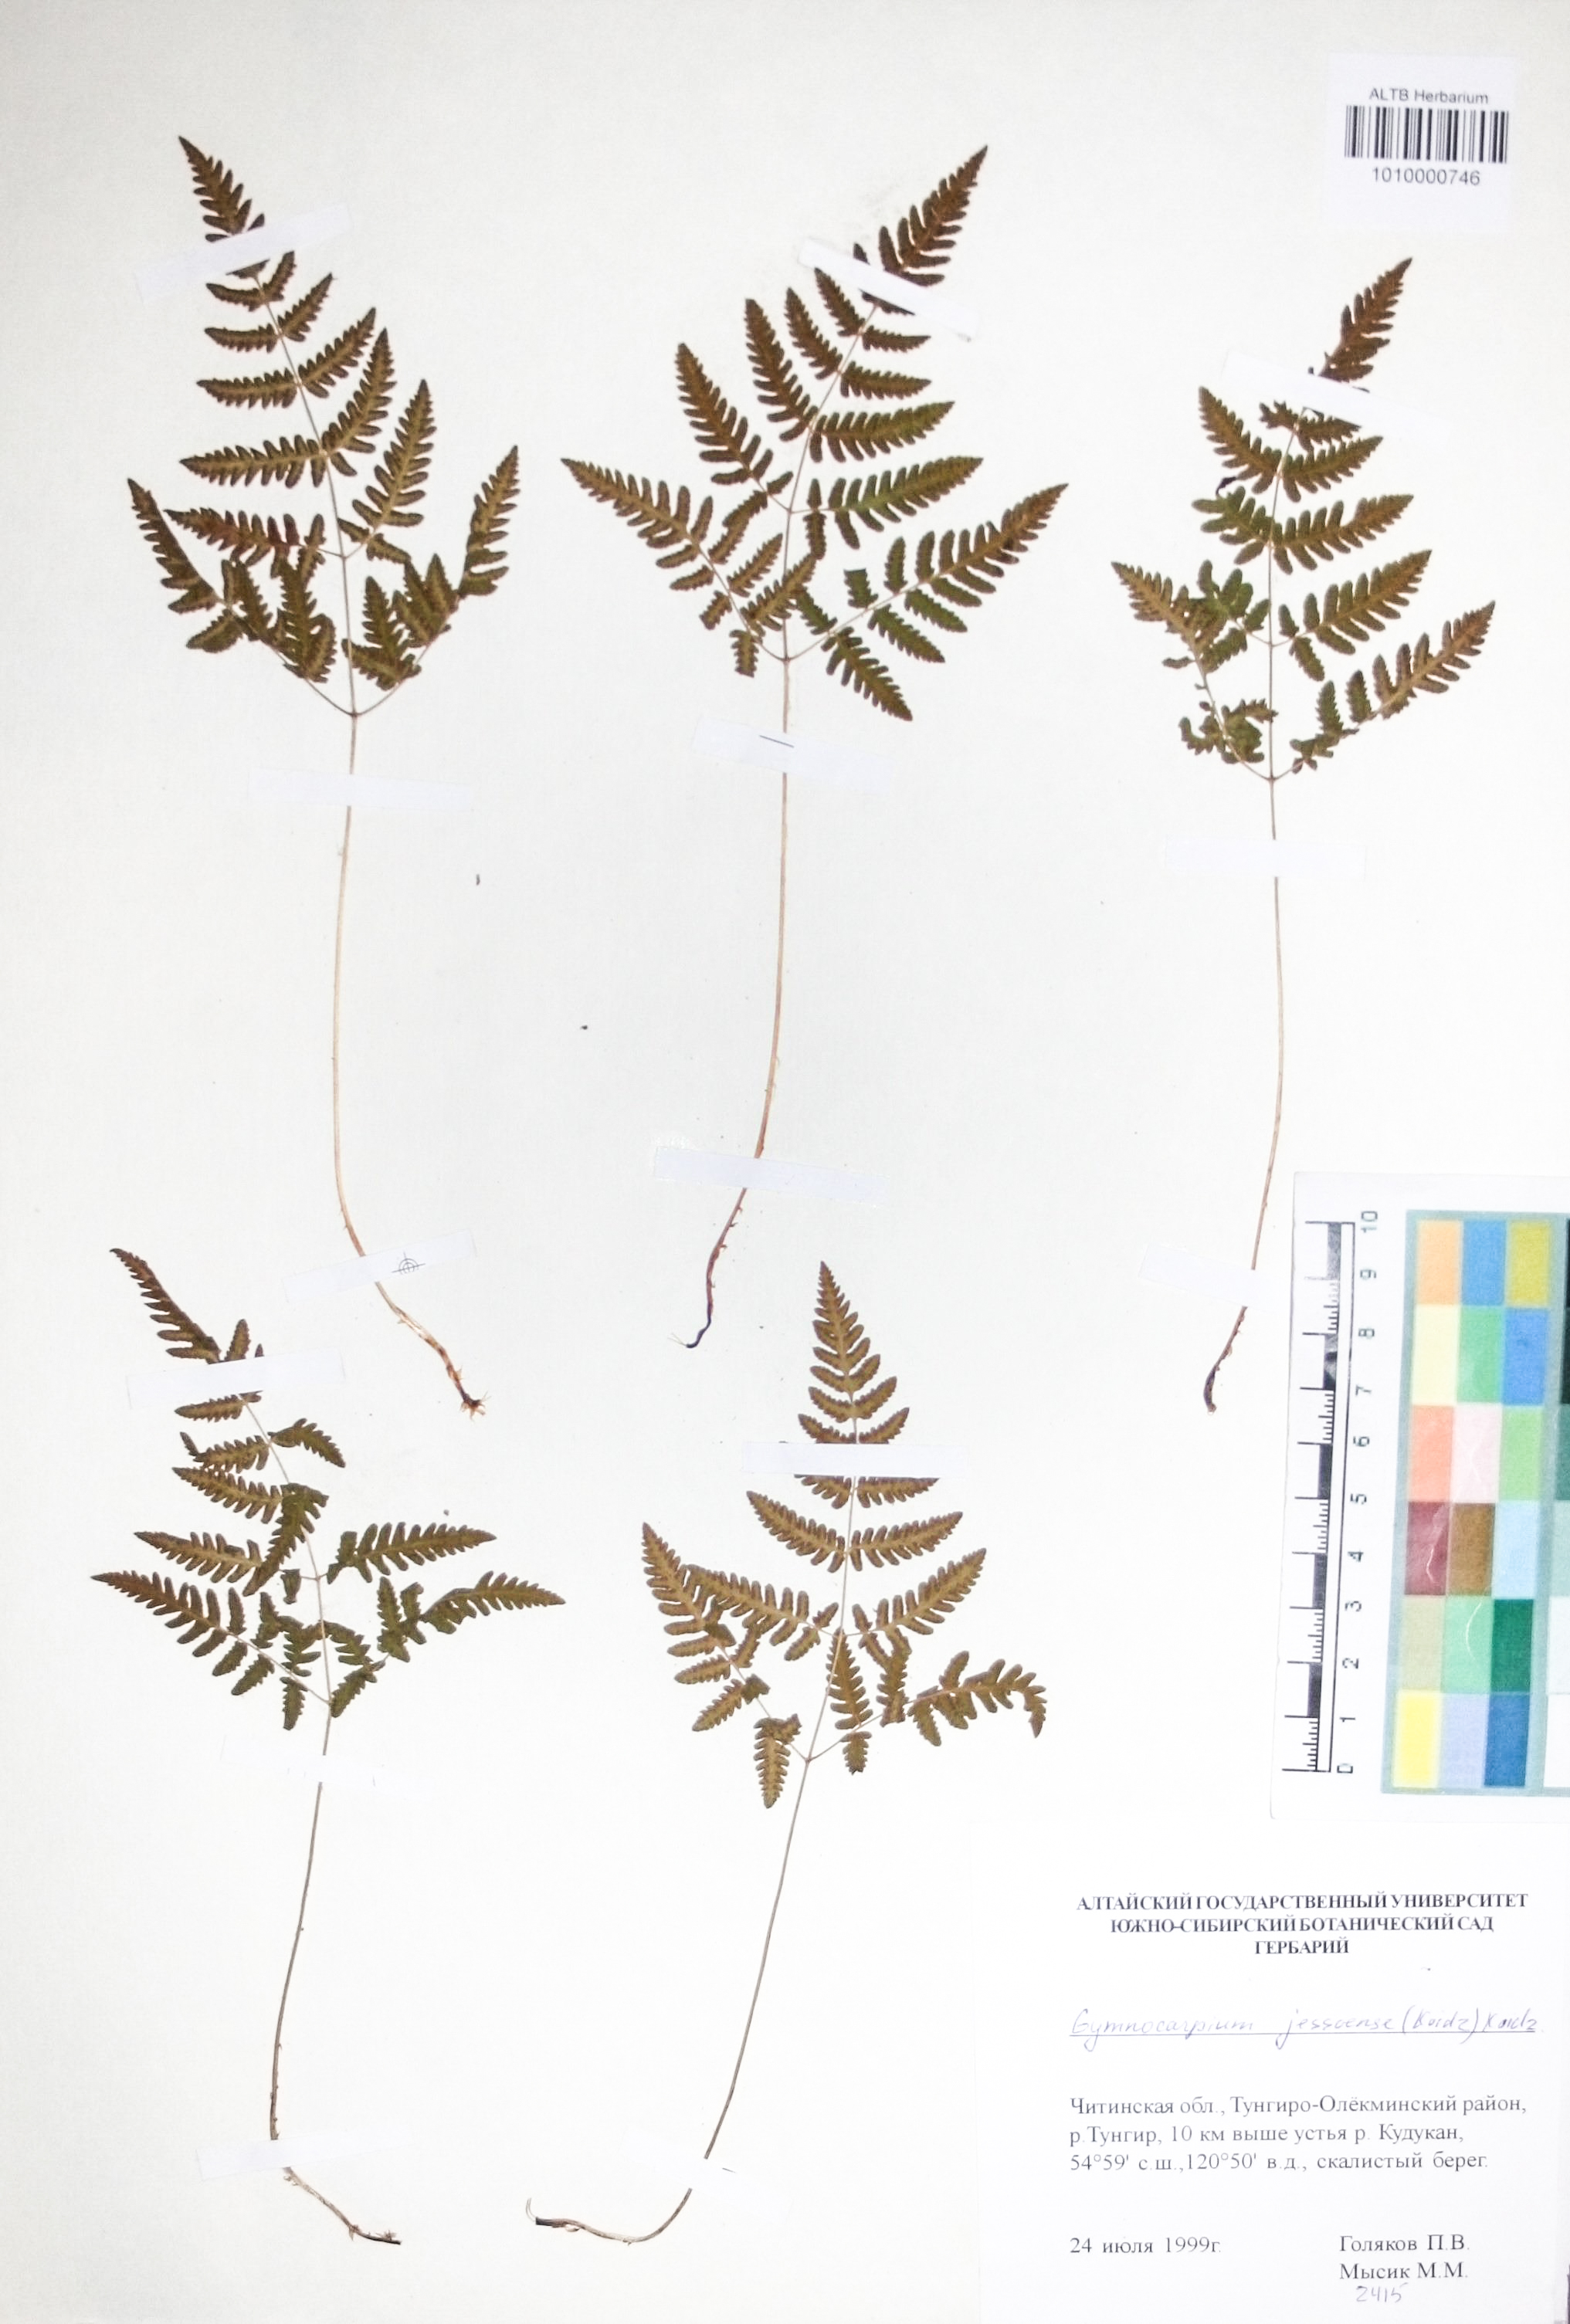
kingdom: Plantae
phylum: Tracheophyta
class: Polypodiopsida
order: Polypodiales
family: Cystopteridaceae
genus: Gymnocarpium
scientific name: Gymnocarpium jessoense
